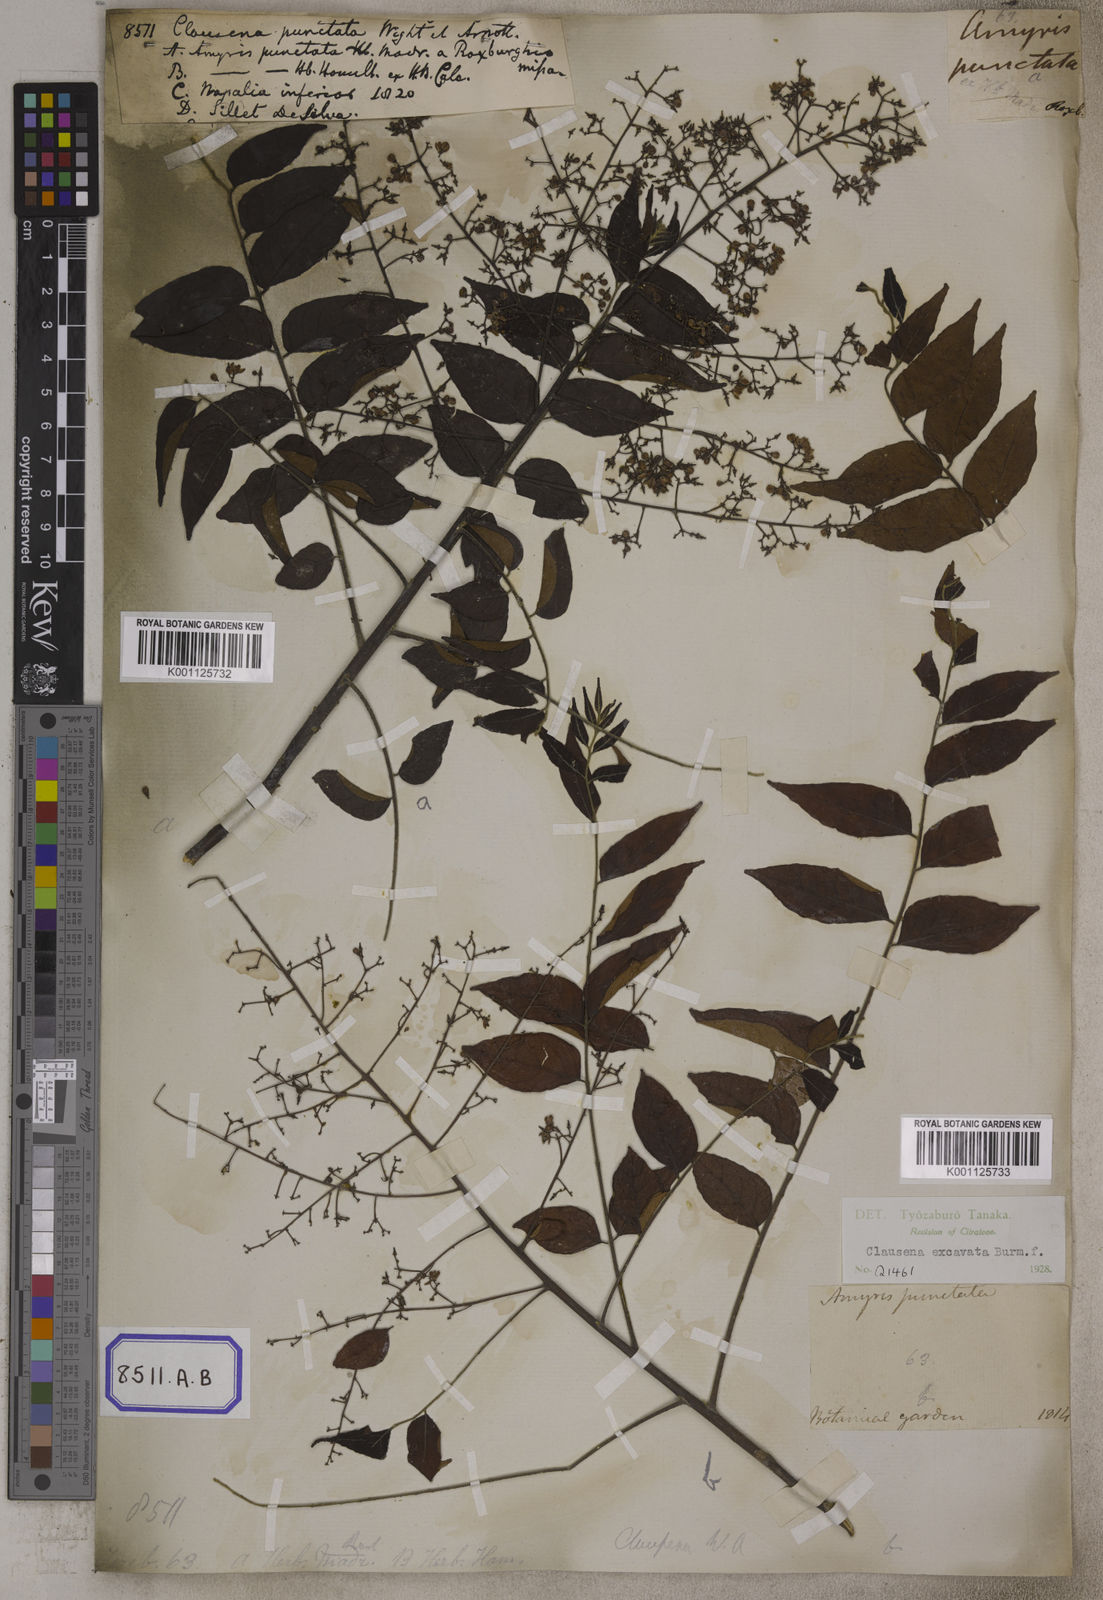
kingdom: Plantae
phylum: Tracheophyta
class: Magnoliopsida
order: Sapindales
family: Rutaceae
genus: Clausena
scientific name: Clausena
